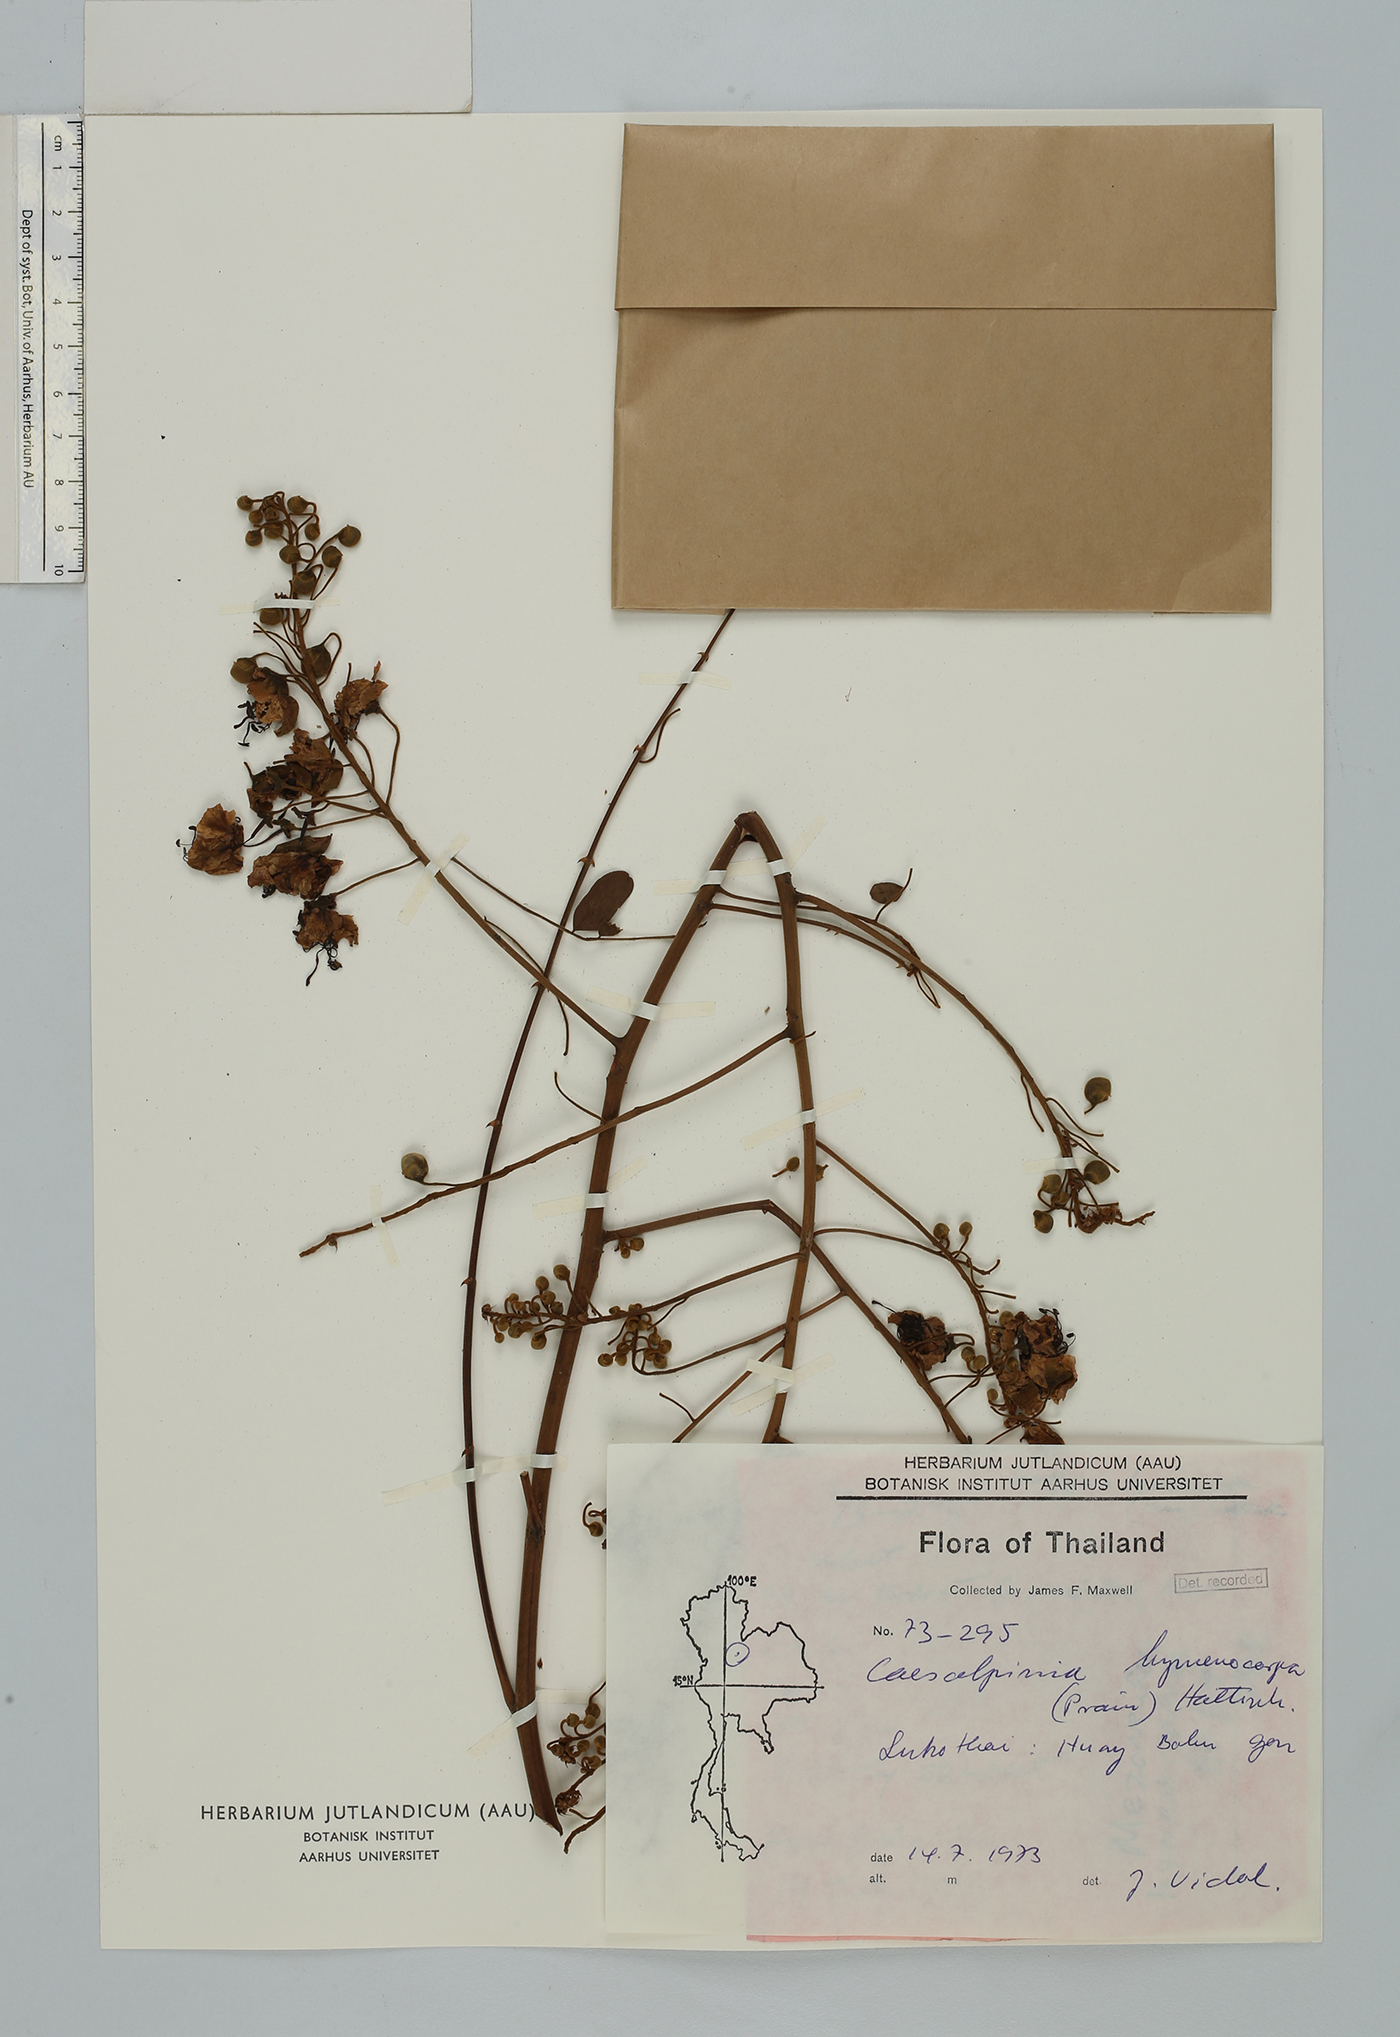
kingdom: Plantae
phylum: Tracheophyta
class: Magnoliopsida
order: Fabales
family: Fabaceae
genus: Mezoneuron
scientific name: Mezoneuron hymenocarpum
